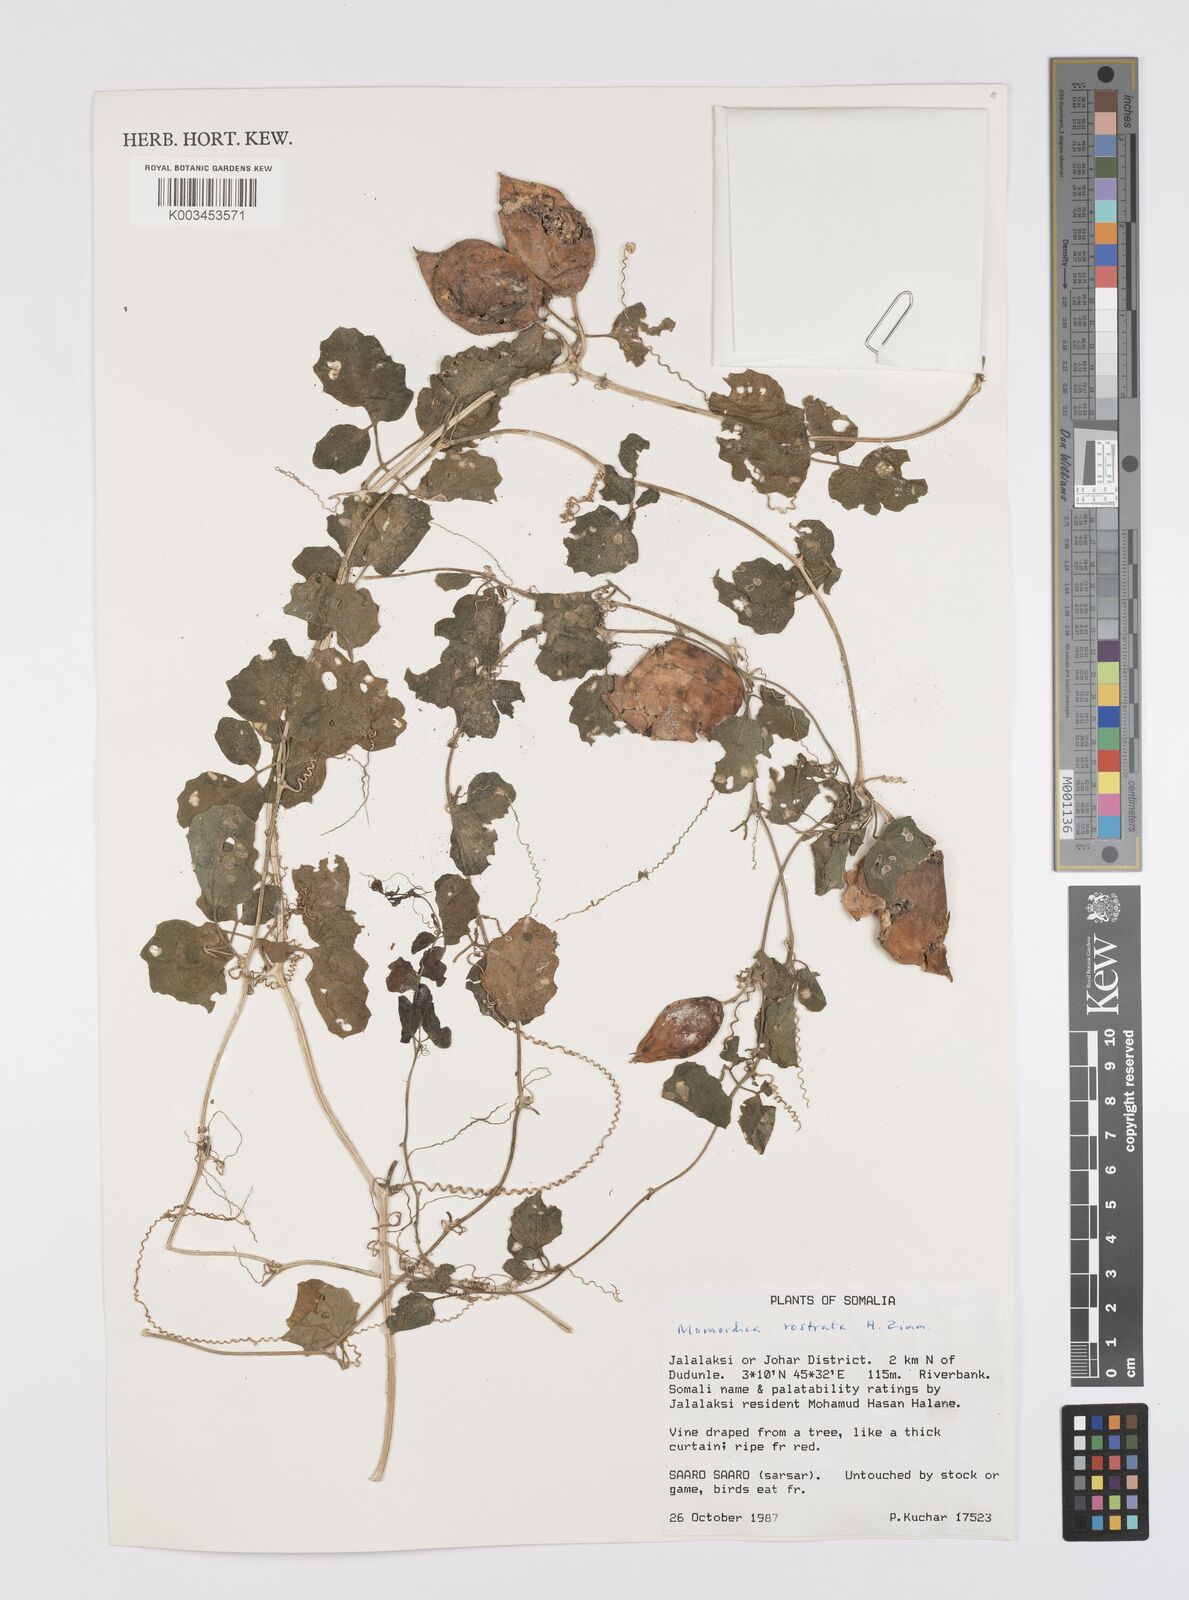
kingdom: Plantae
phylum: Tracheophyta
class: Magnoliopsida
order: Cucurbitales
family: Cucurbitaceae
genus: Momordica
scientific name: Momordica rostrata
